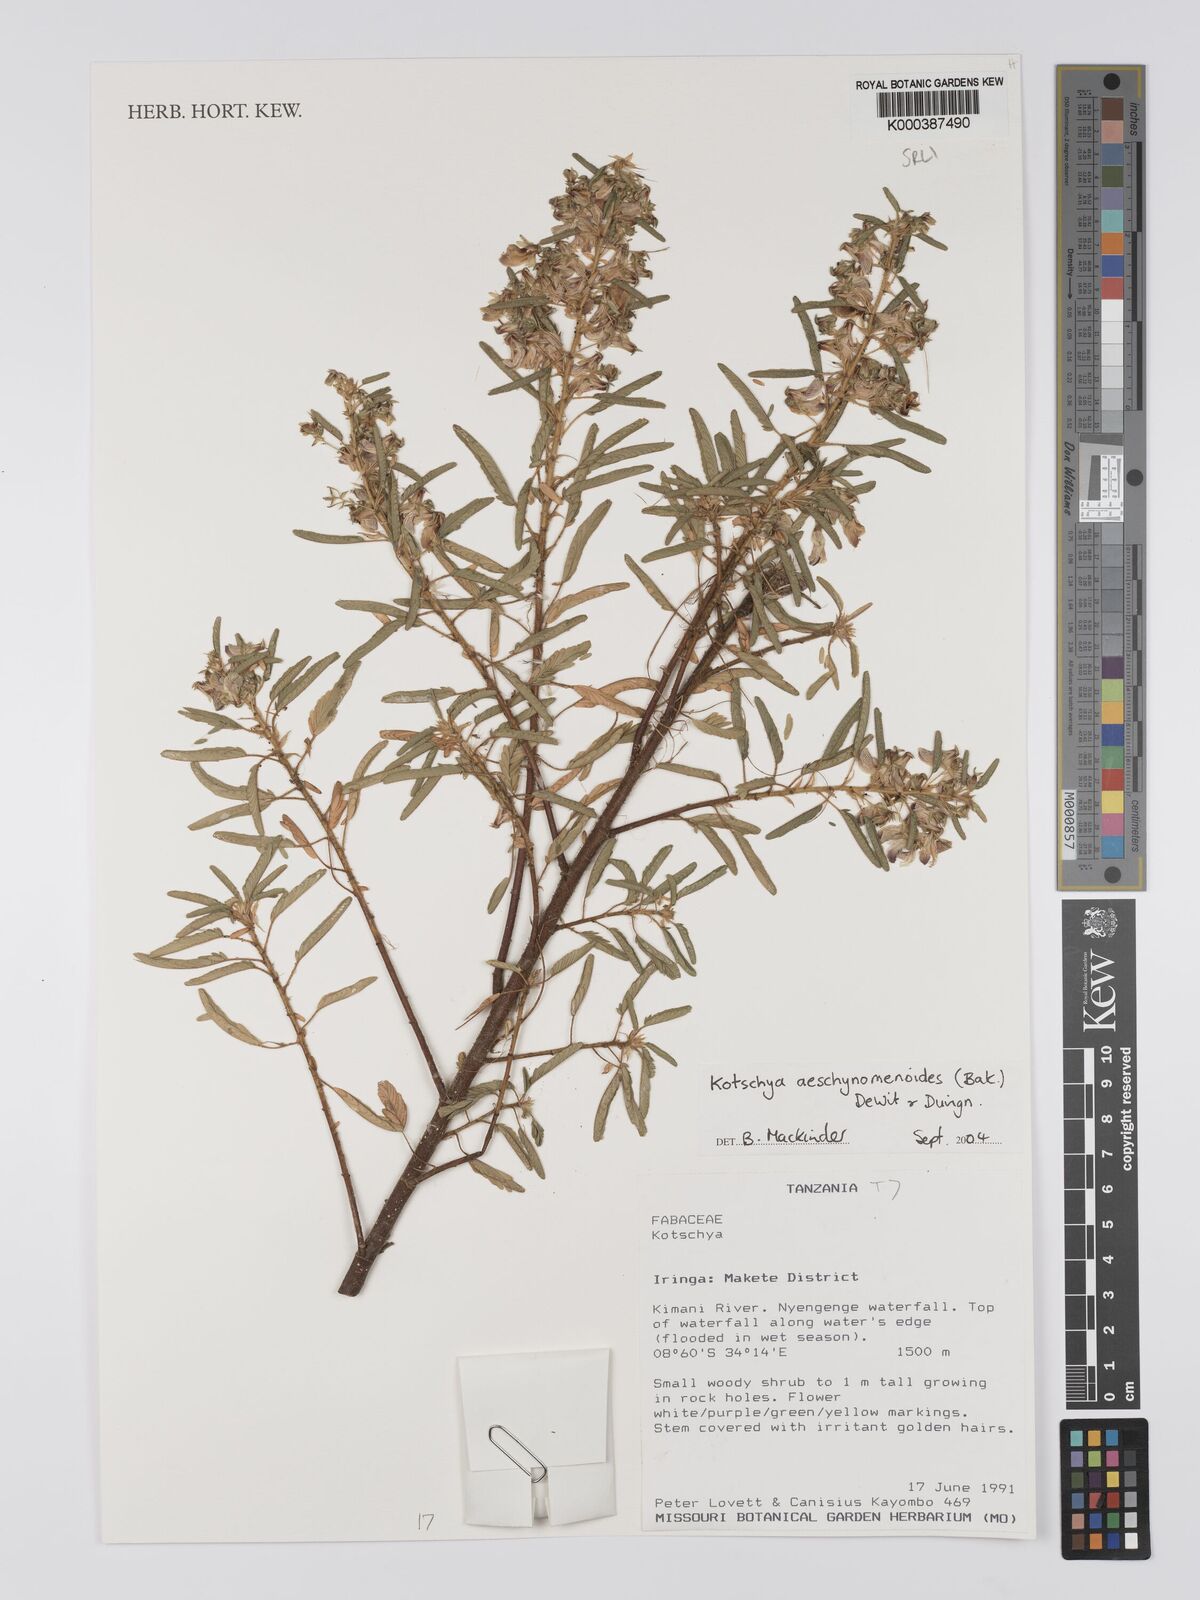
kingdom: Plantae
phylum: Tracheophyta
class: Magnoliopsida
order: Fabales
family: Fabaceae
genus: Kotschya
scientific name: Kotschya aeschynomenoides
